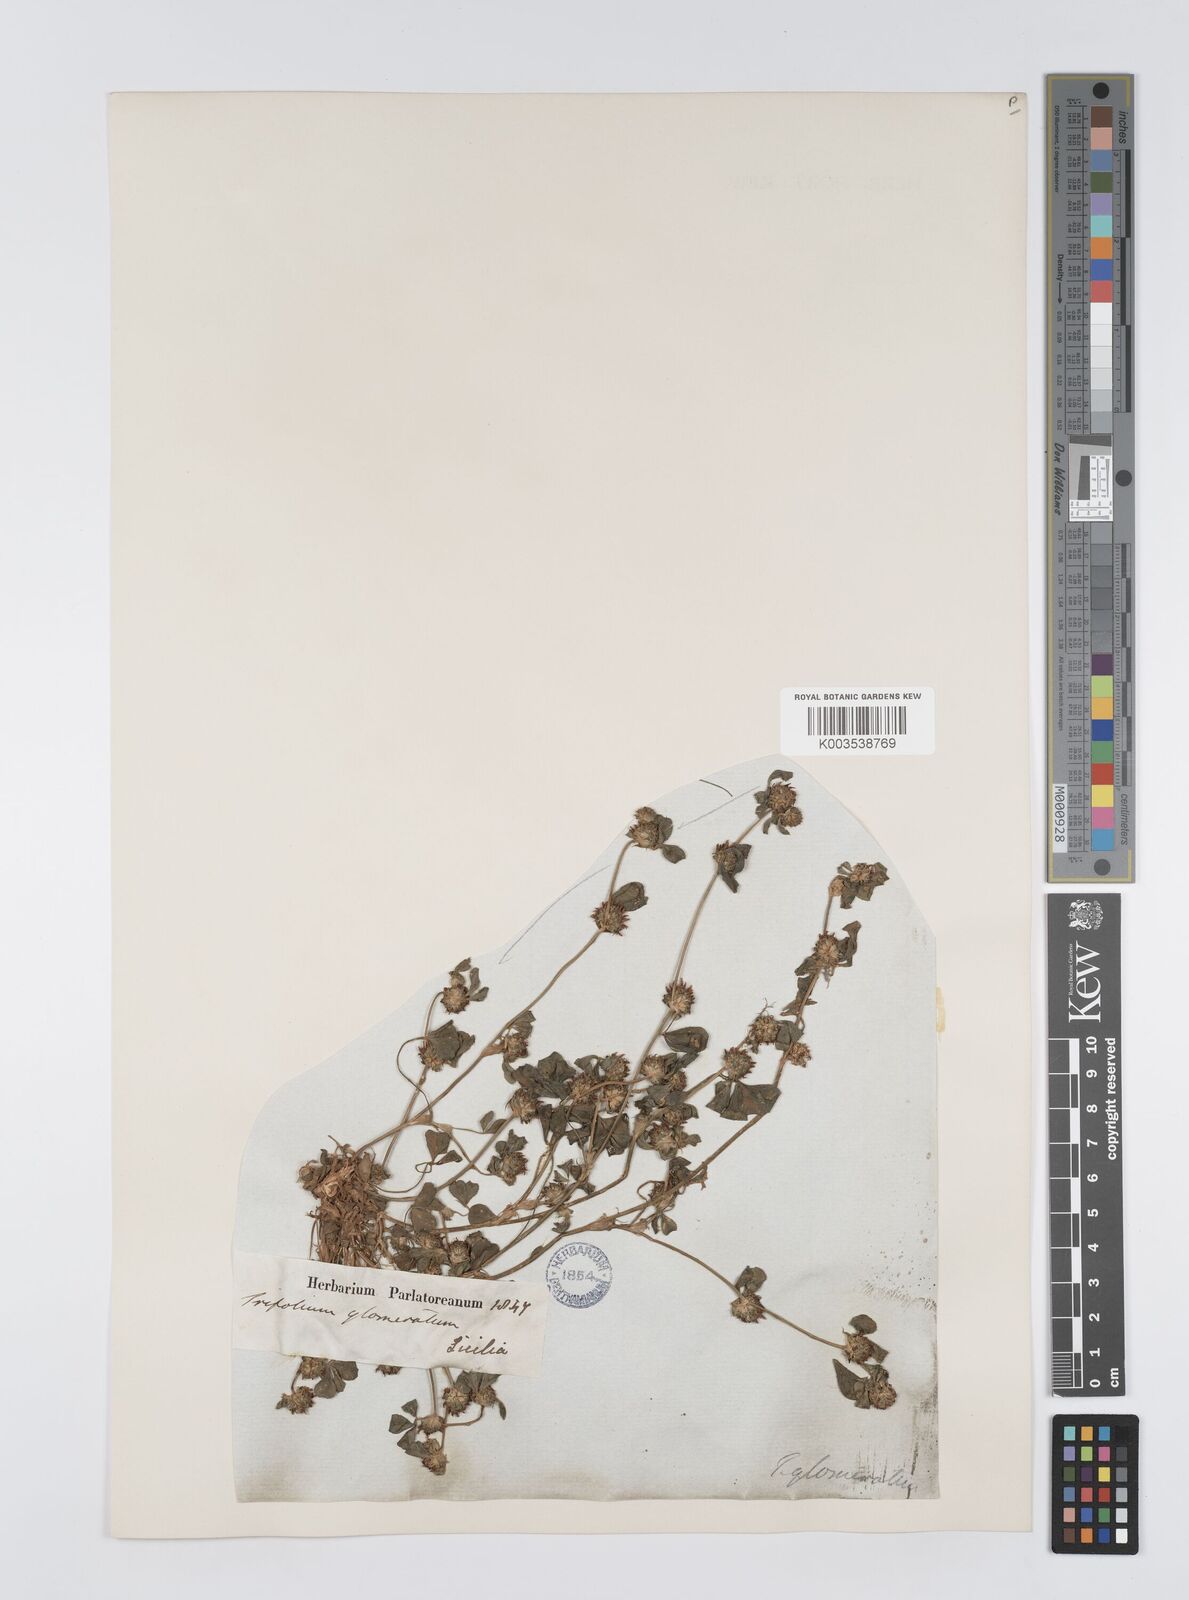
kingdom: Plantae
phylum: Tracheophyta
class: Magnoliopsida
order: Fabales
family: Fabaceae
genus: Trifolium
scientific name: Trifolium glomeratum
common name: Clustered clover
